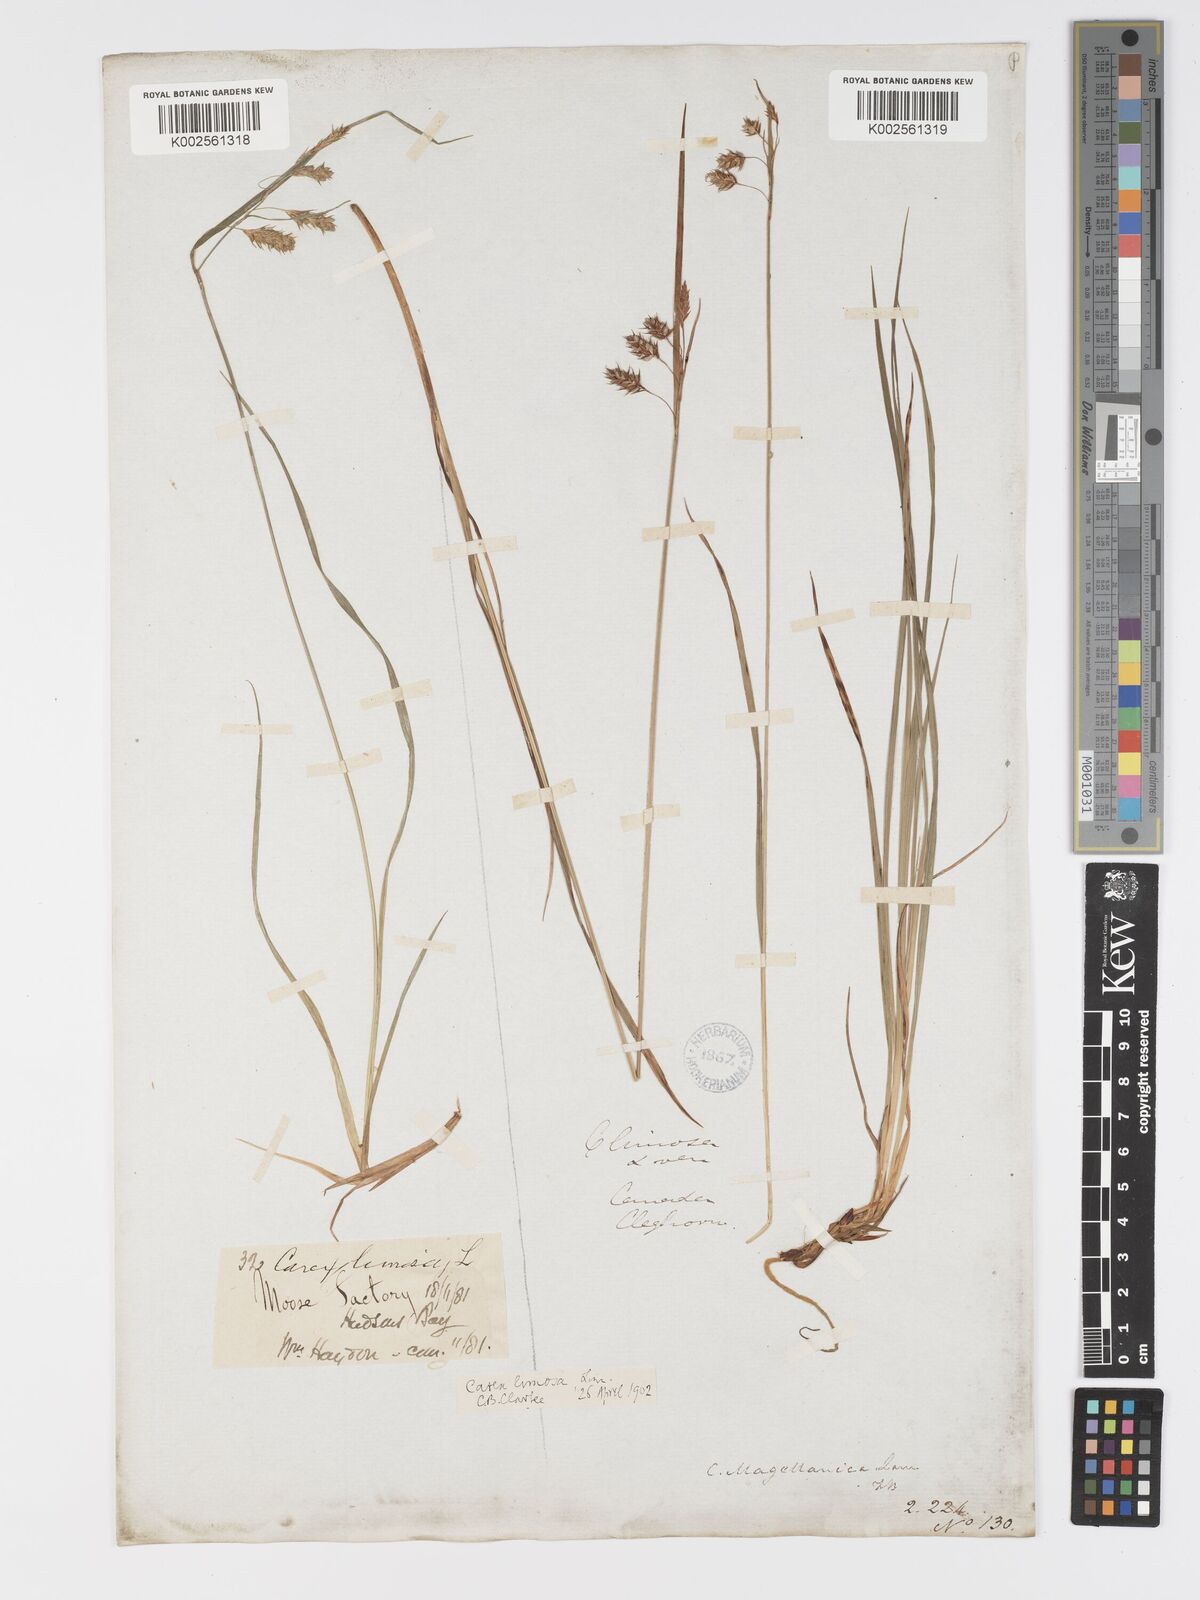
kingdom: Plantae
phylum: Tracheophyta
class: Liliopsida
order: Poales
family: Cyperaceae
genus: Carex
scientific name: Carex magellanica
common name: Bog sedge
